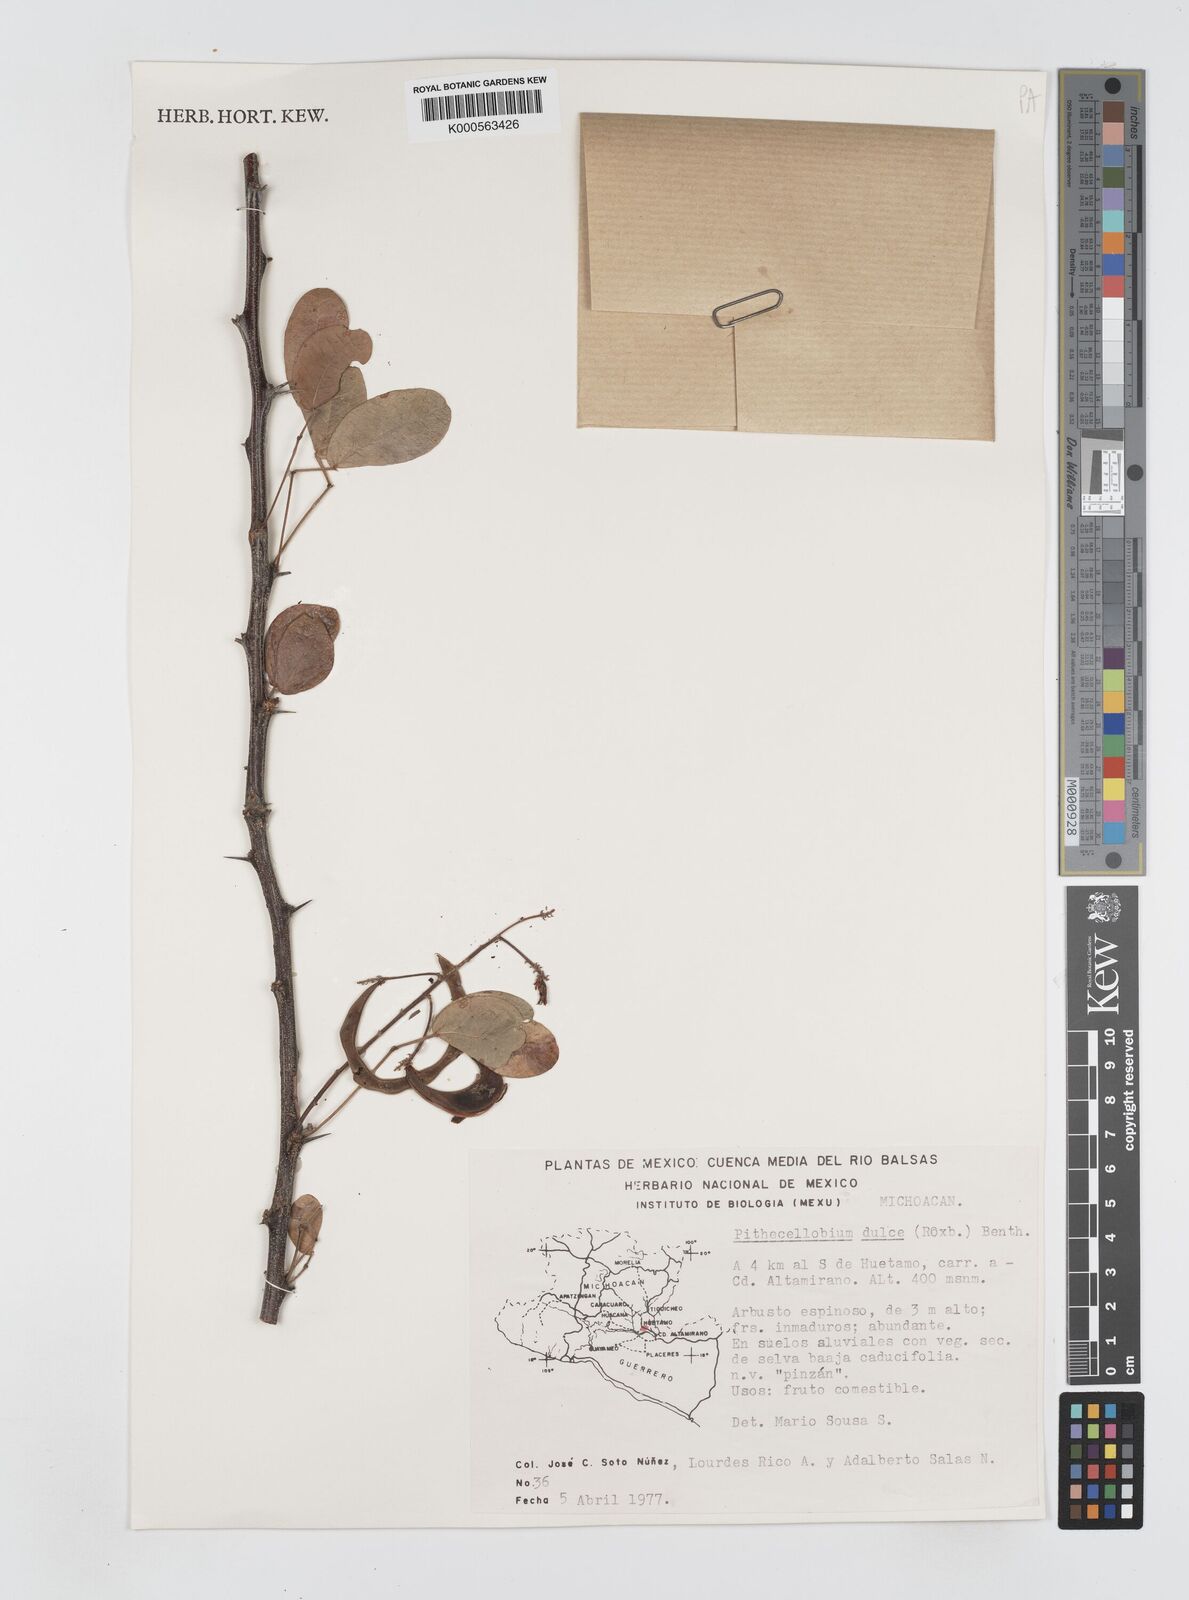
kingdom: Plantae
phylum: Tracheophyta
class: Magnoliopsida
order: Fabales
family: Fabaceae
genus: Pithecellobium
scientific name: Pithecellobium dulce
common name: Monkeypod
